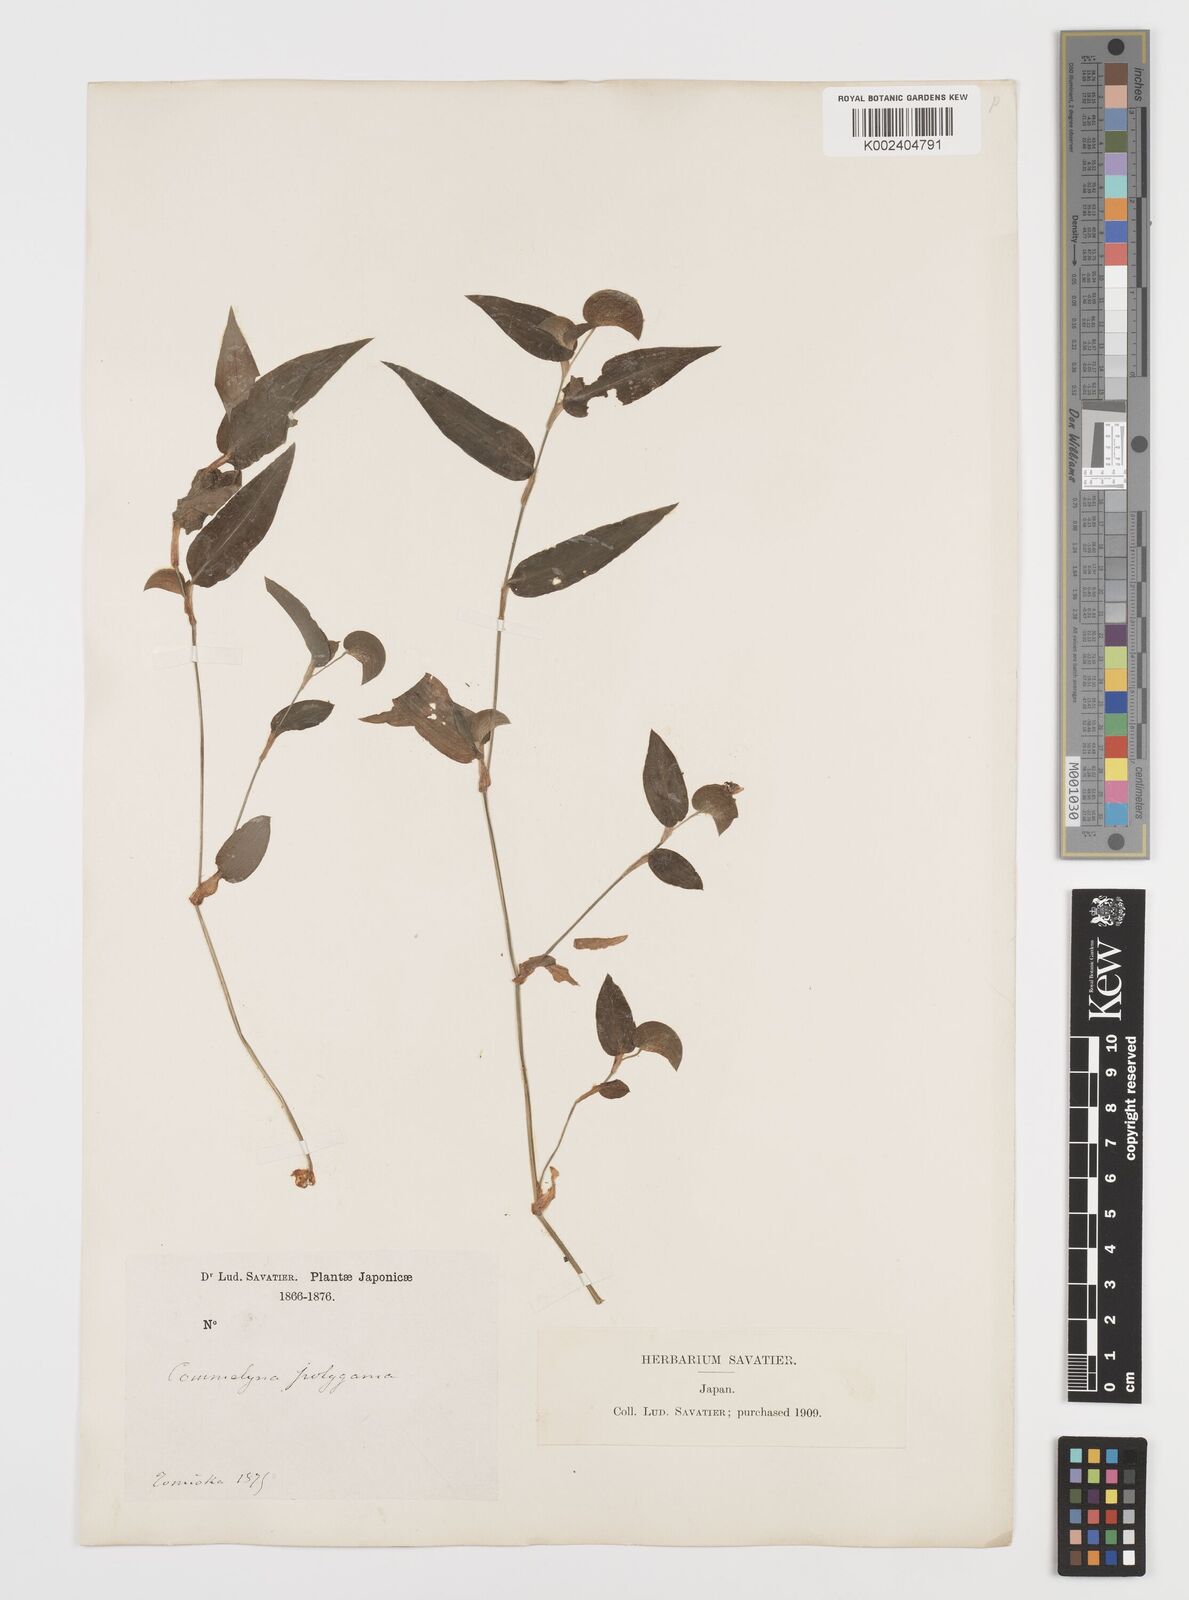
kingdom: Plantae
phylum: Tracheophyta
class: Liliopsida
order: Commelinales
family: Commelinaceae
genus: Commelina
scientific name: Commelina communis
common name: Asiatic dayflower
